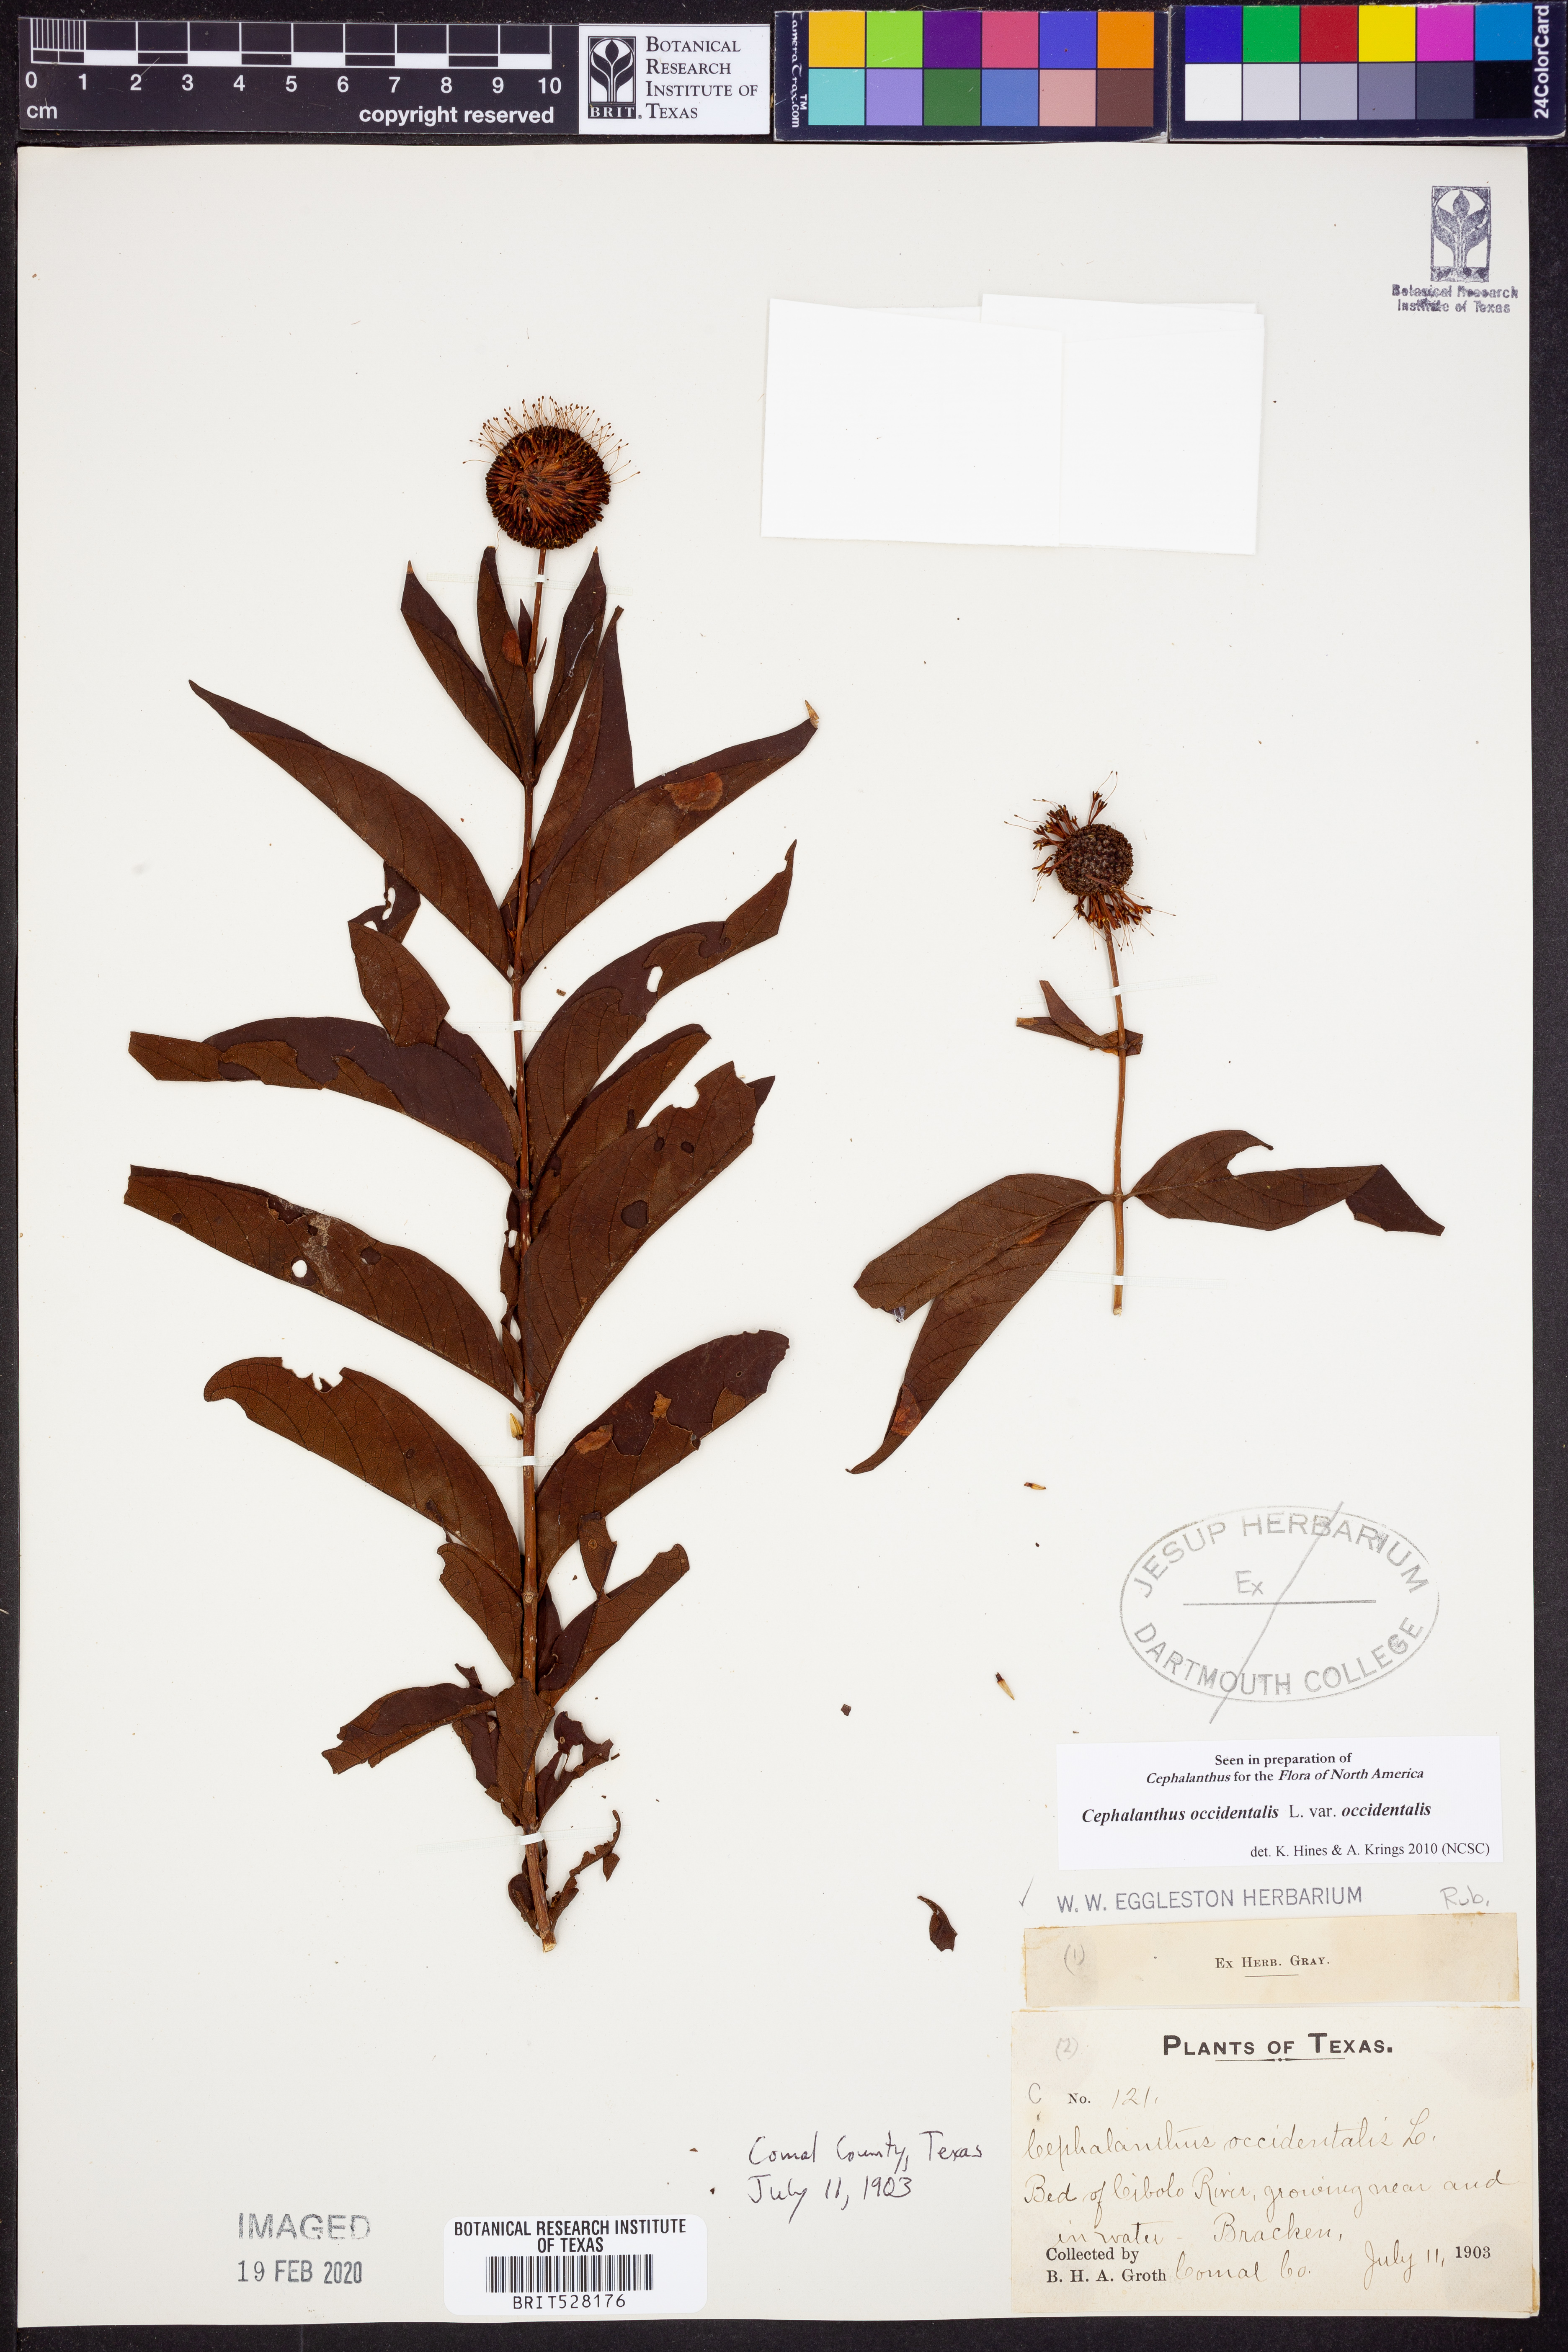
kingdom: Plantae
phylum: Tracheophyta
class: Magnoliopsida
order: Gentianales
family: Rubiaceae
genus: Cephalanthus
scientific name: Cephalanthus occidentalis
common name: Button-willow
